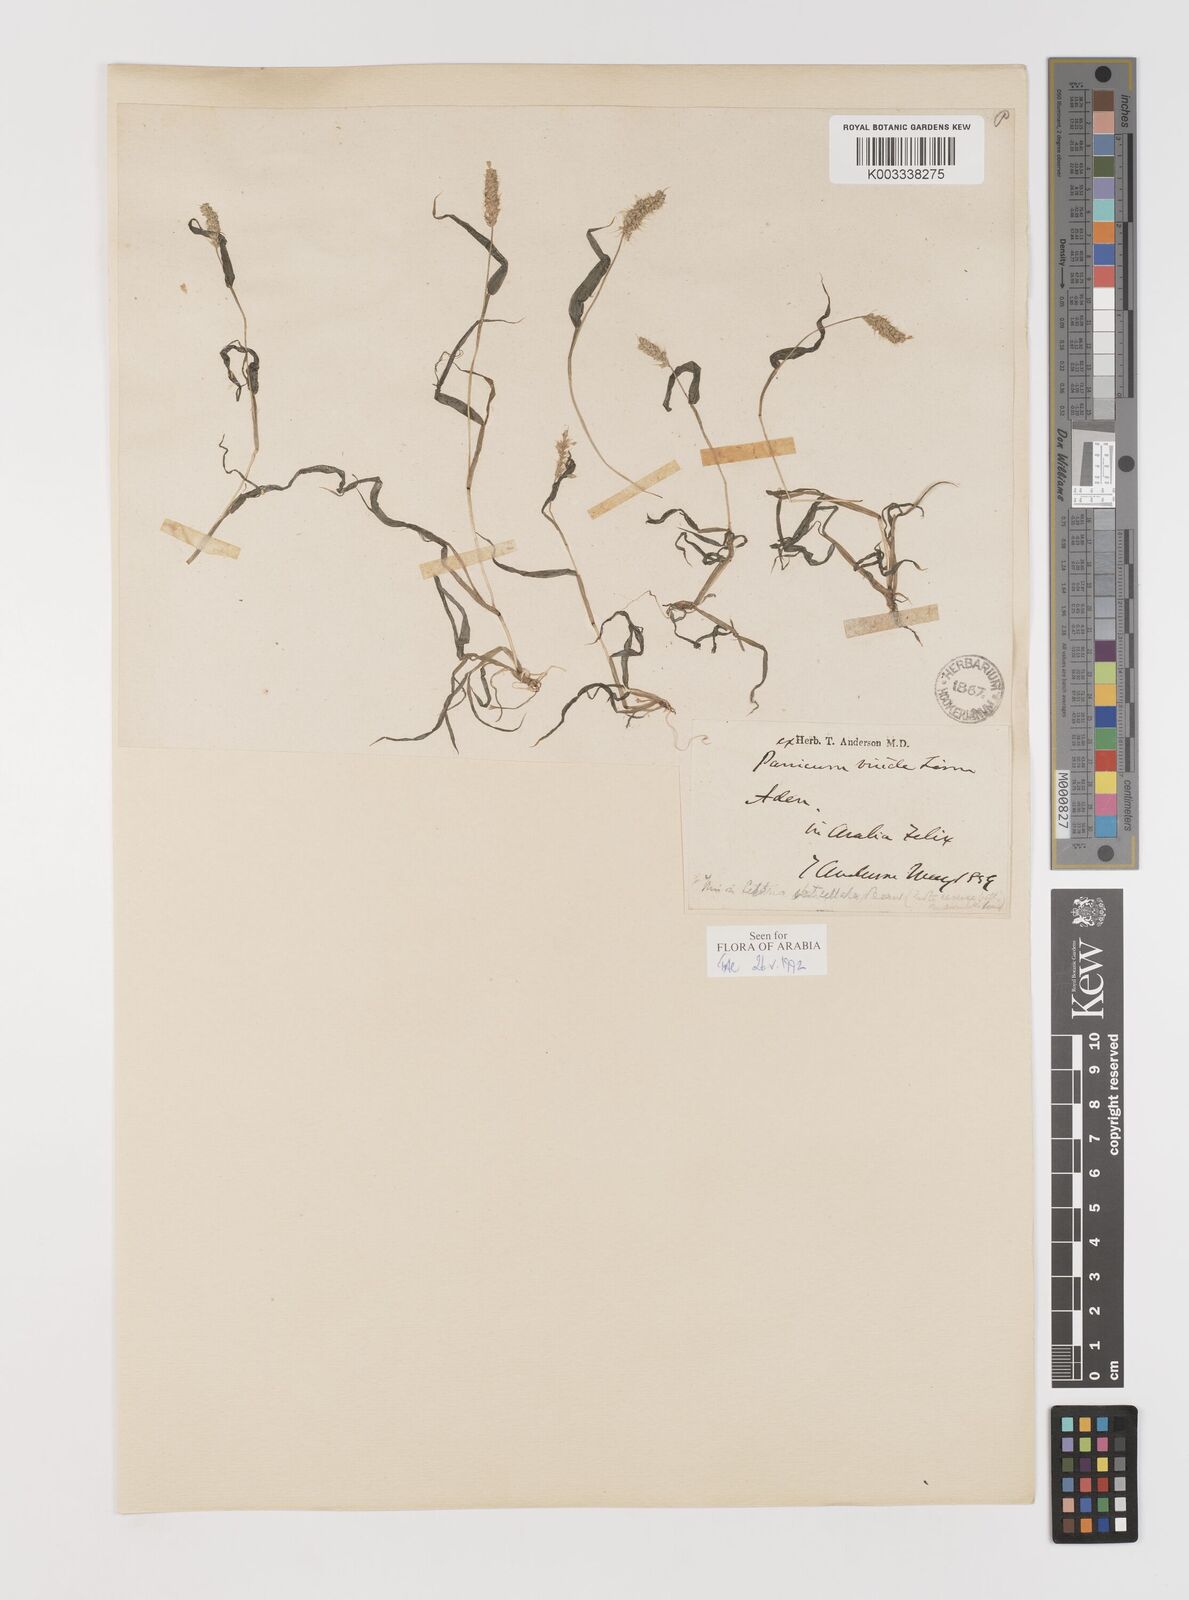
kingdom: Plantae
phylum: Tracheophyta
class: Liliopsida
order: Poales
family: Poaceae
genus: Setaria
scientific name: Setaria verticillata
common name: Hooked bristlegrass
